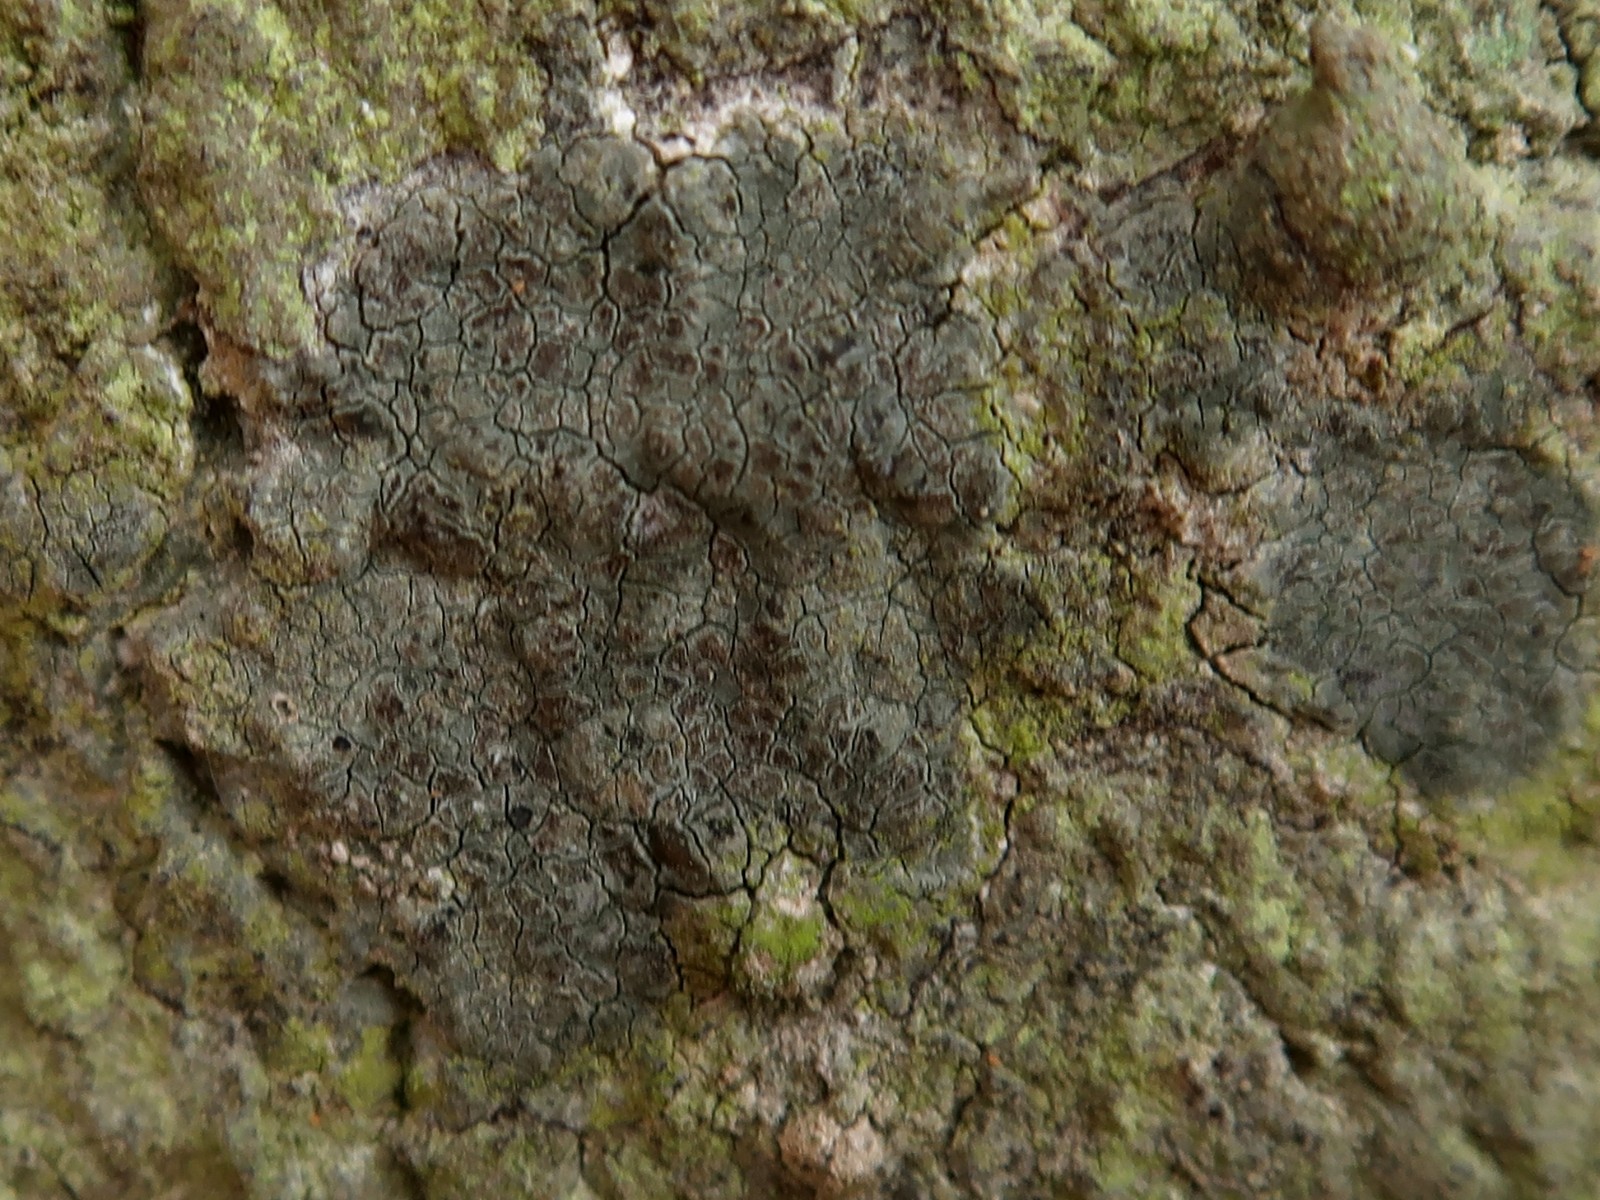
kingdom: Fungi
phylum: Ascomycota
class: Arthoniomycetes
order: Arthoniales
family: Roccellaceae
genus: Enterographa
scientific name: Enterographa crassa
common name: tyk prægelav
